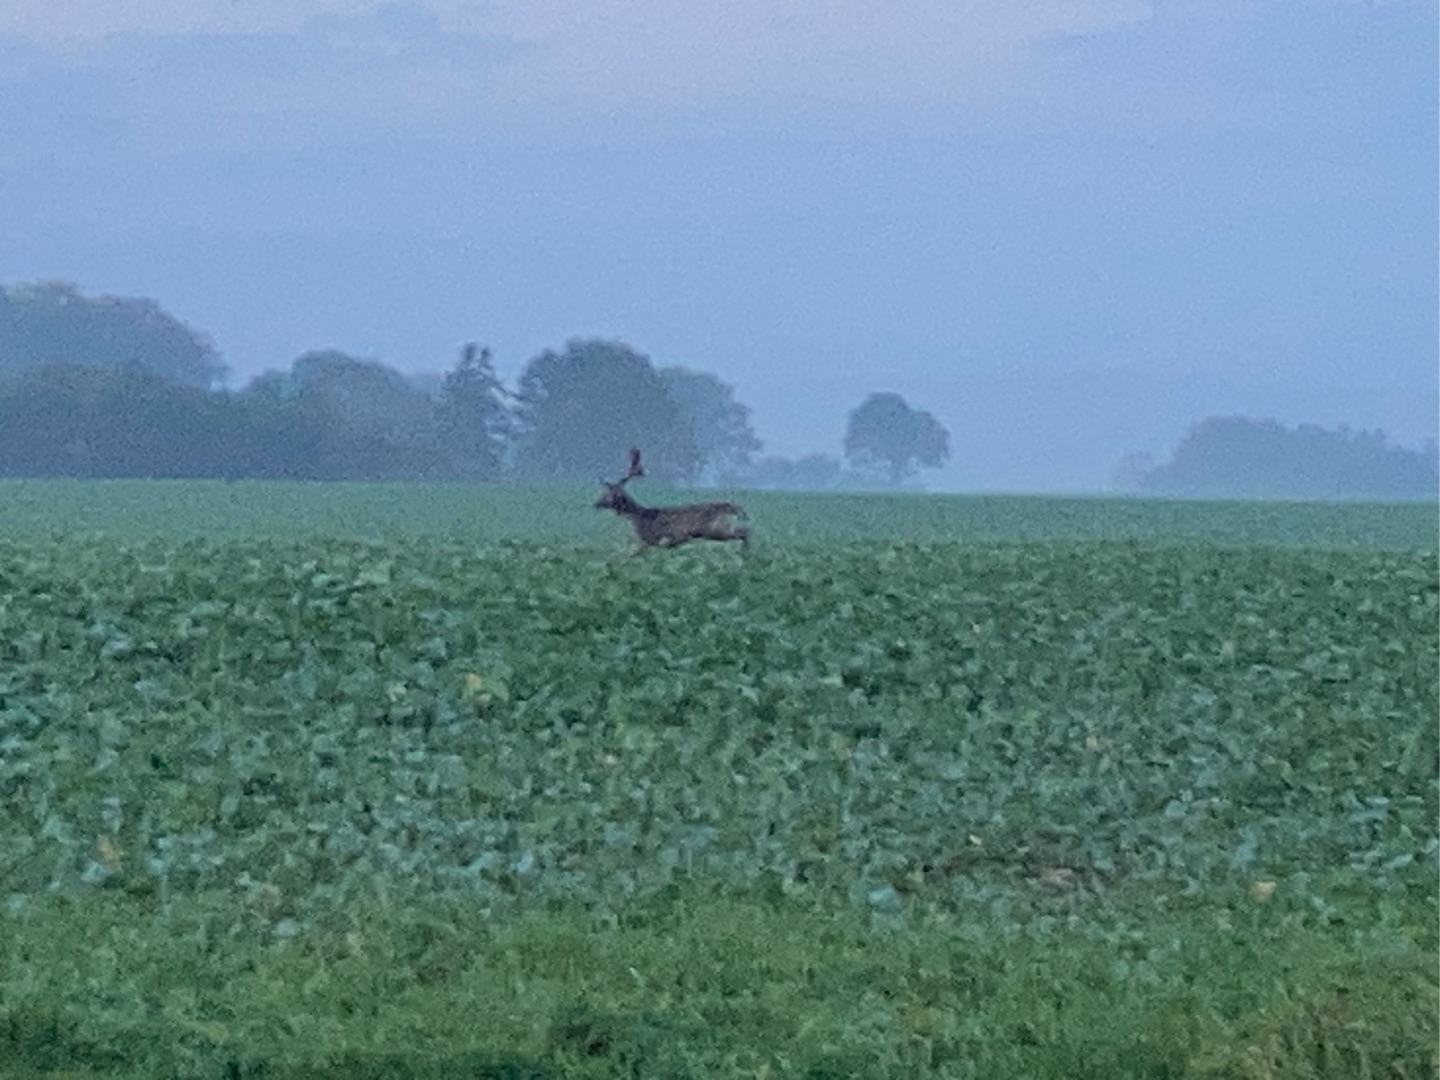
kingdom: Animalia
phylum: Chordata
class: Mammalia
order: Artiodactyla
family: Cervidae
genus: Dama
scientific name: Dama dama
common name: Dådyr
